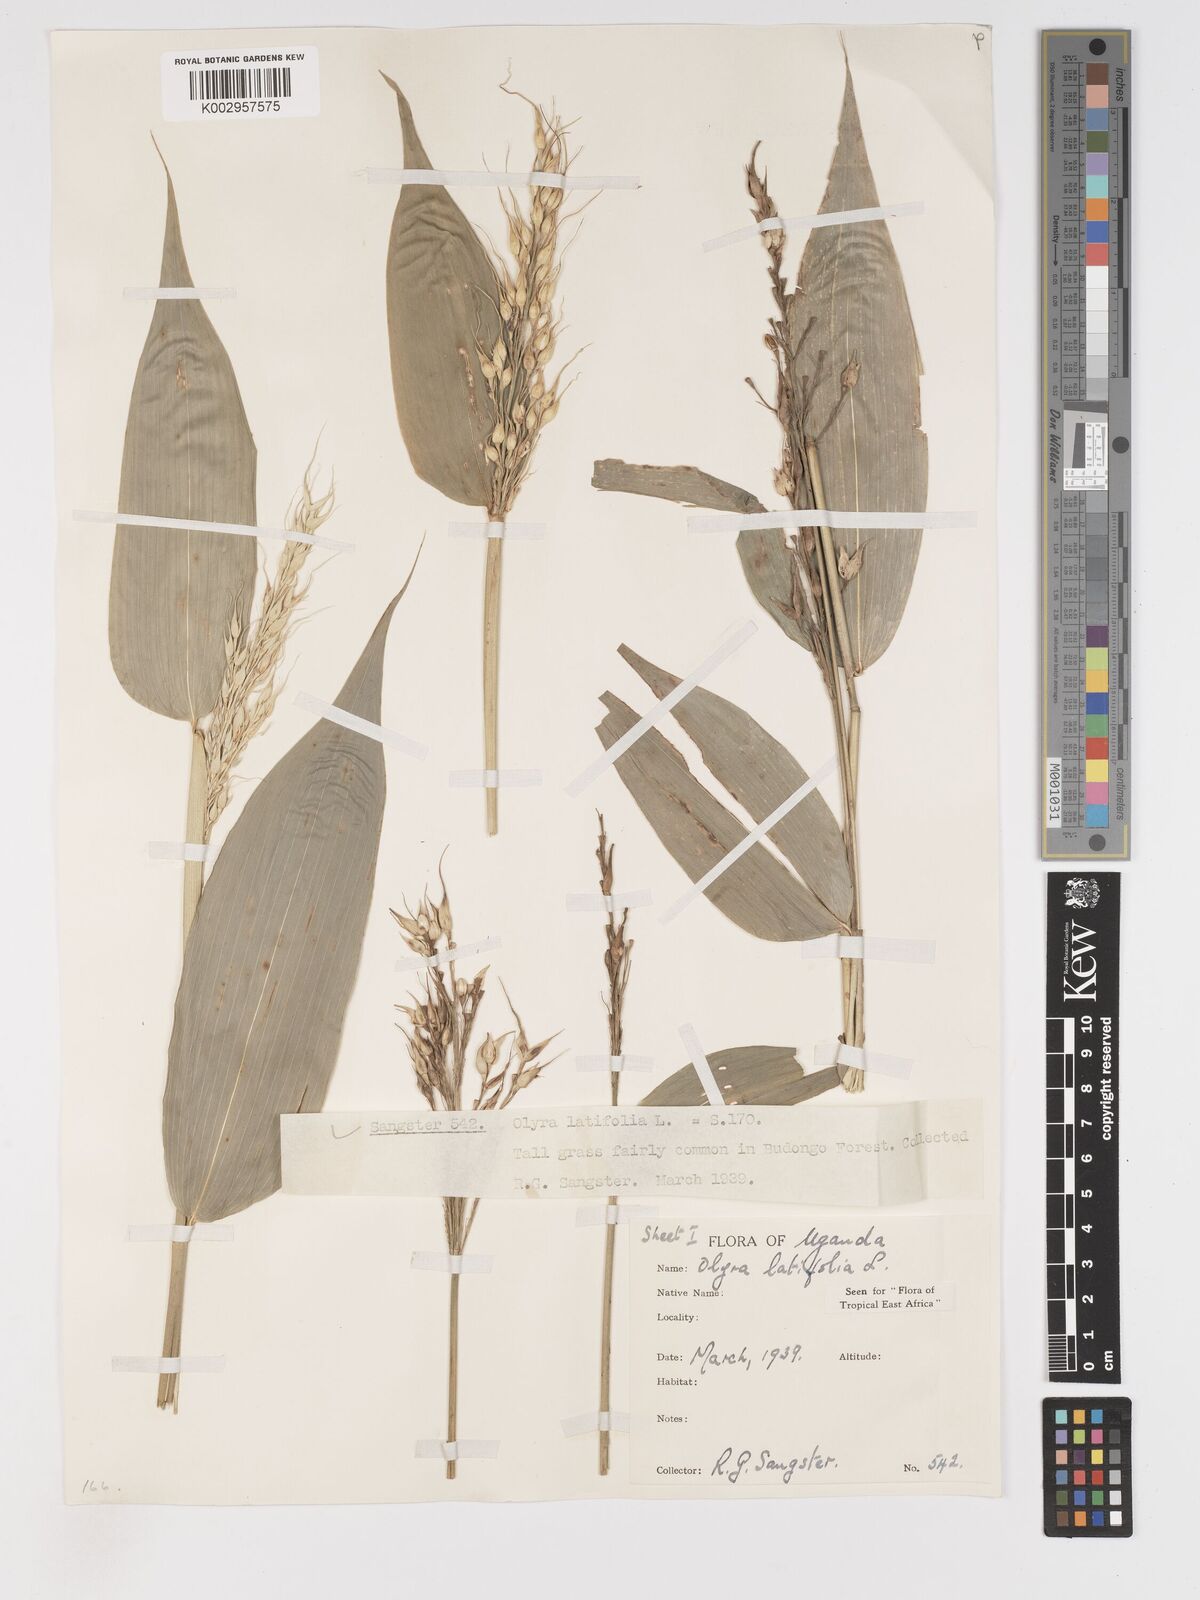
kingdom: Plantae
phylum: Tracheophyta
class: Liliopsida
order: Poales
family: Poaceae
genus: Olyra
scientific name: Olyra latifolia
